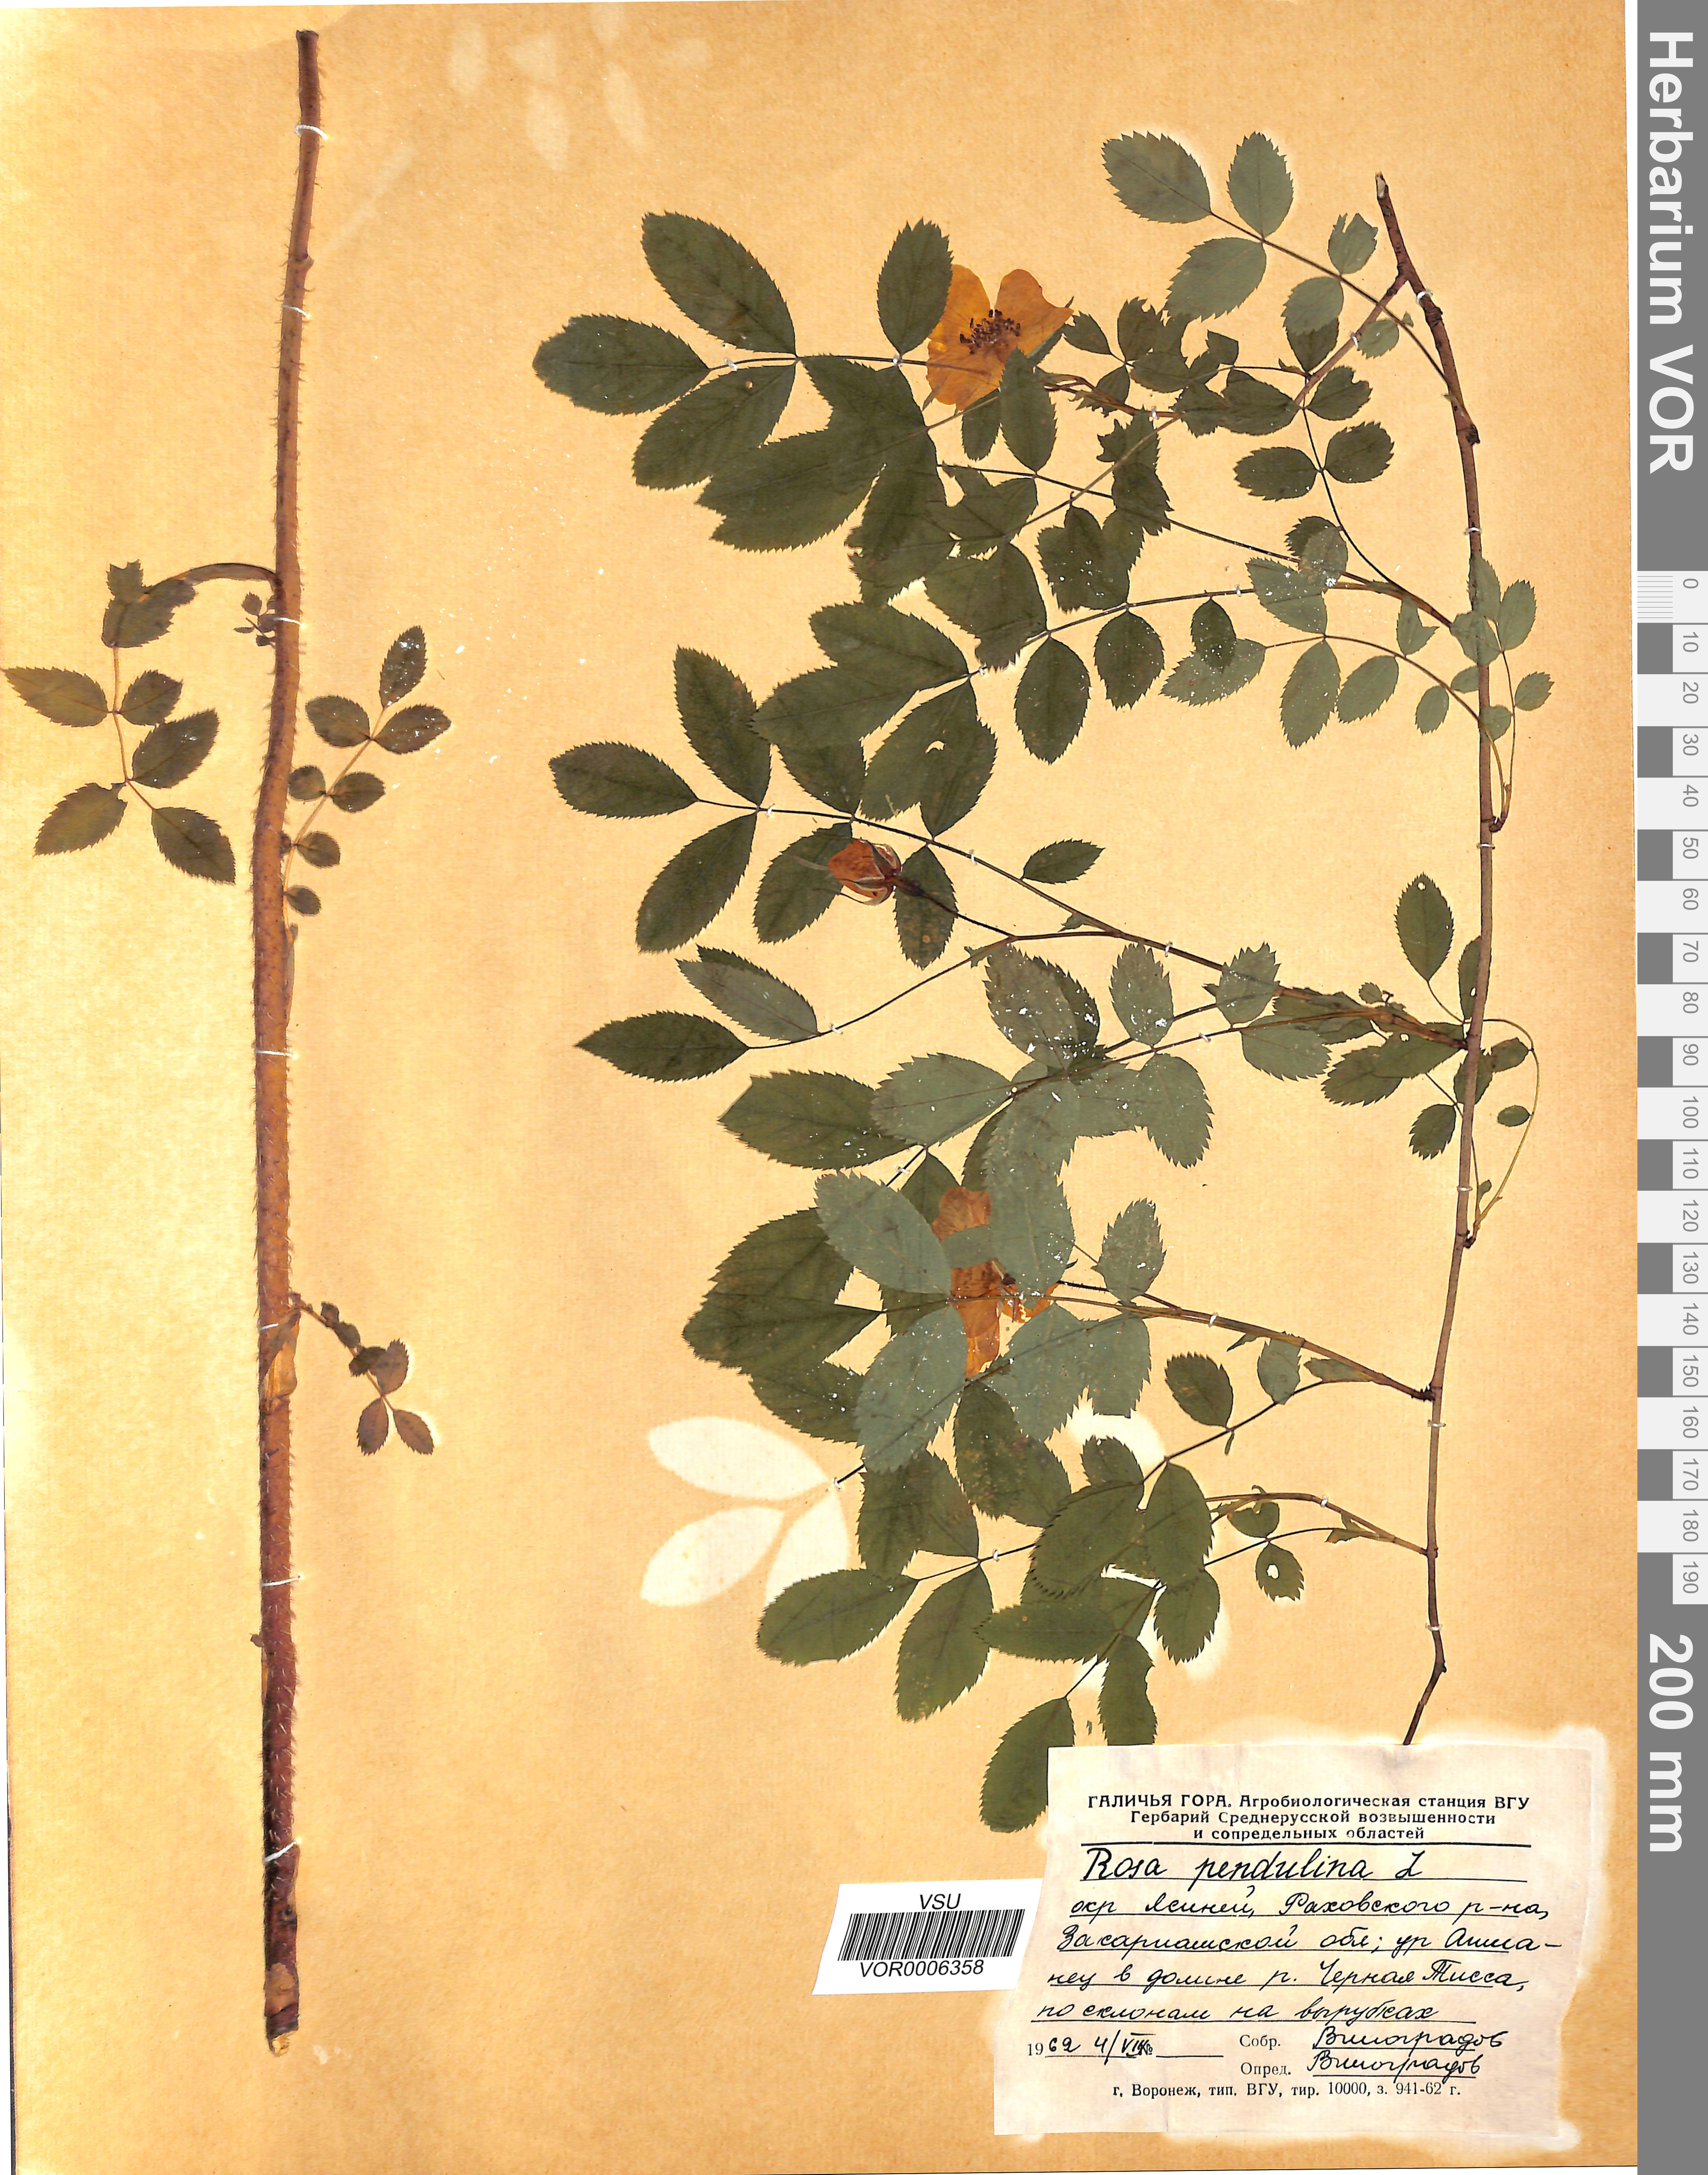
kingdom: Plantae
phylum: Tracheophyta
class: Magnoliopsida
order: Rosales
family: Rosaceae
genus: Rosa
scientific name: Rosa pendulina
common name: Alpine rose
